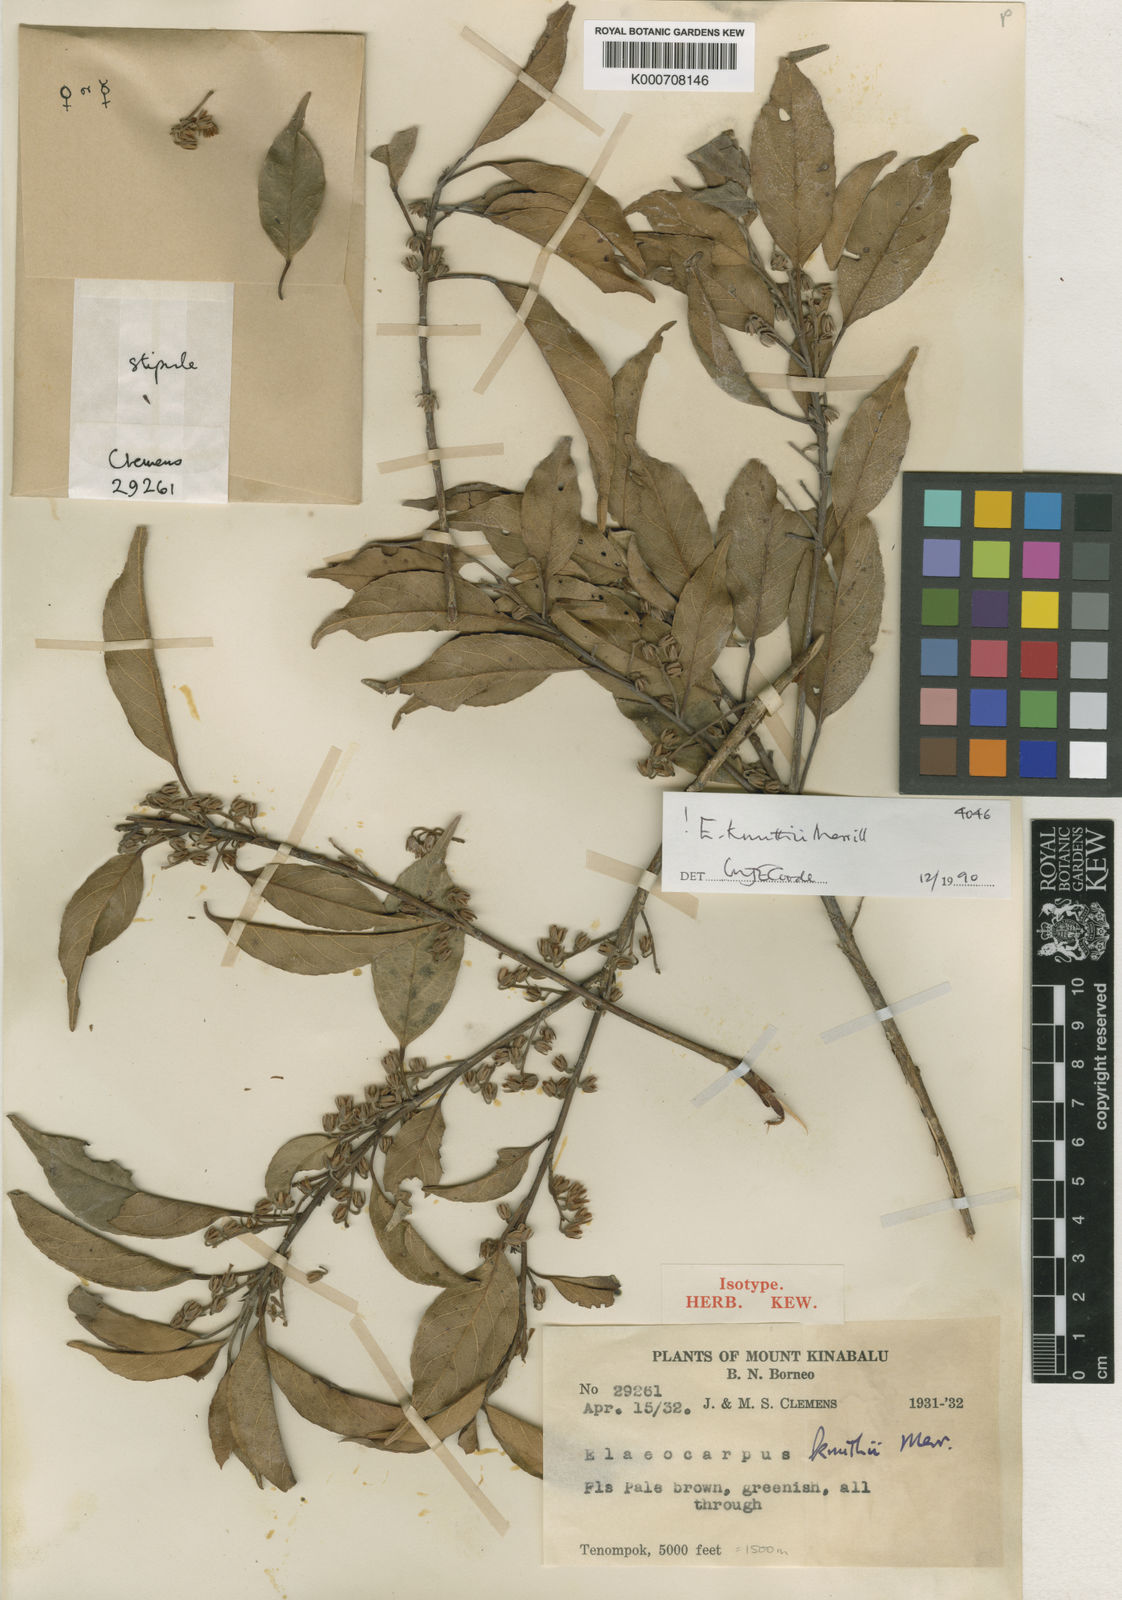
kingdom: Plantae
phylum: Tracheophyta
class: Magnoliopsida
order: Oxalidales
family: Elaeocarpaceae
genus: Elaeocarpus
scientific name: Elaeocarpus knuthii
